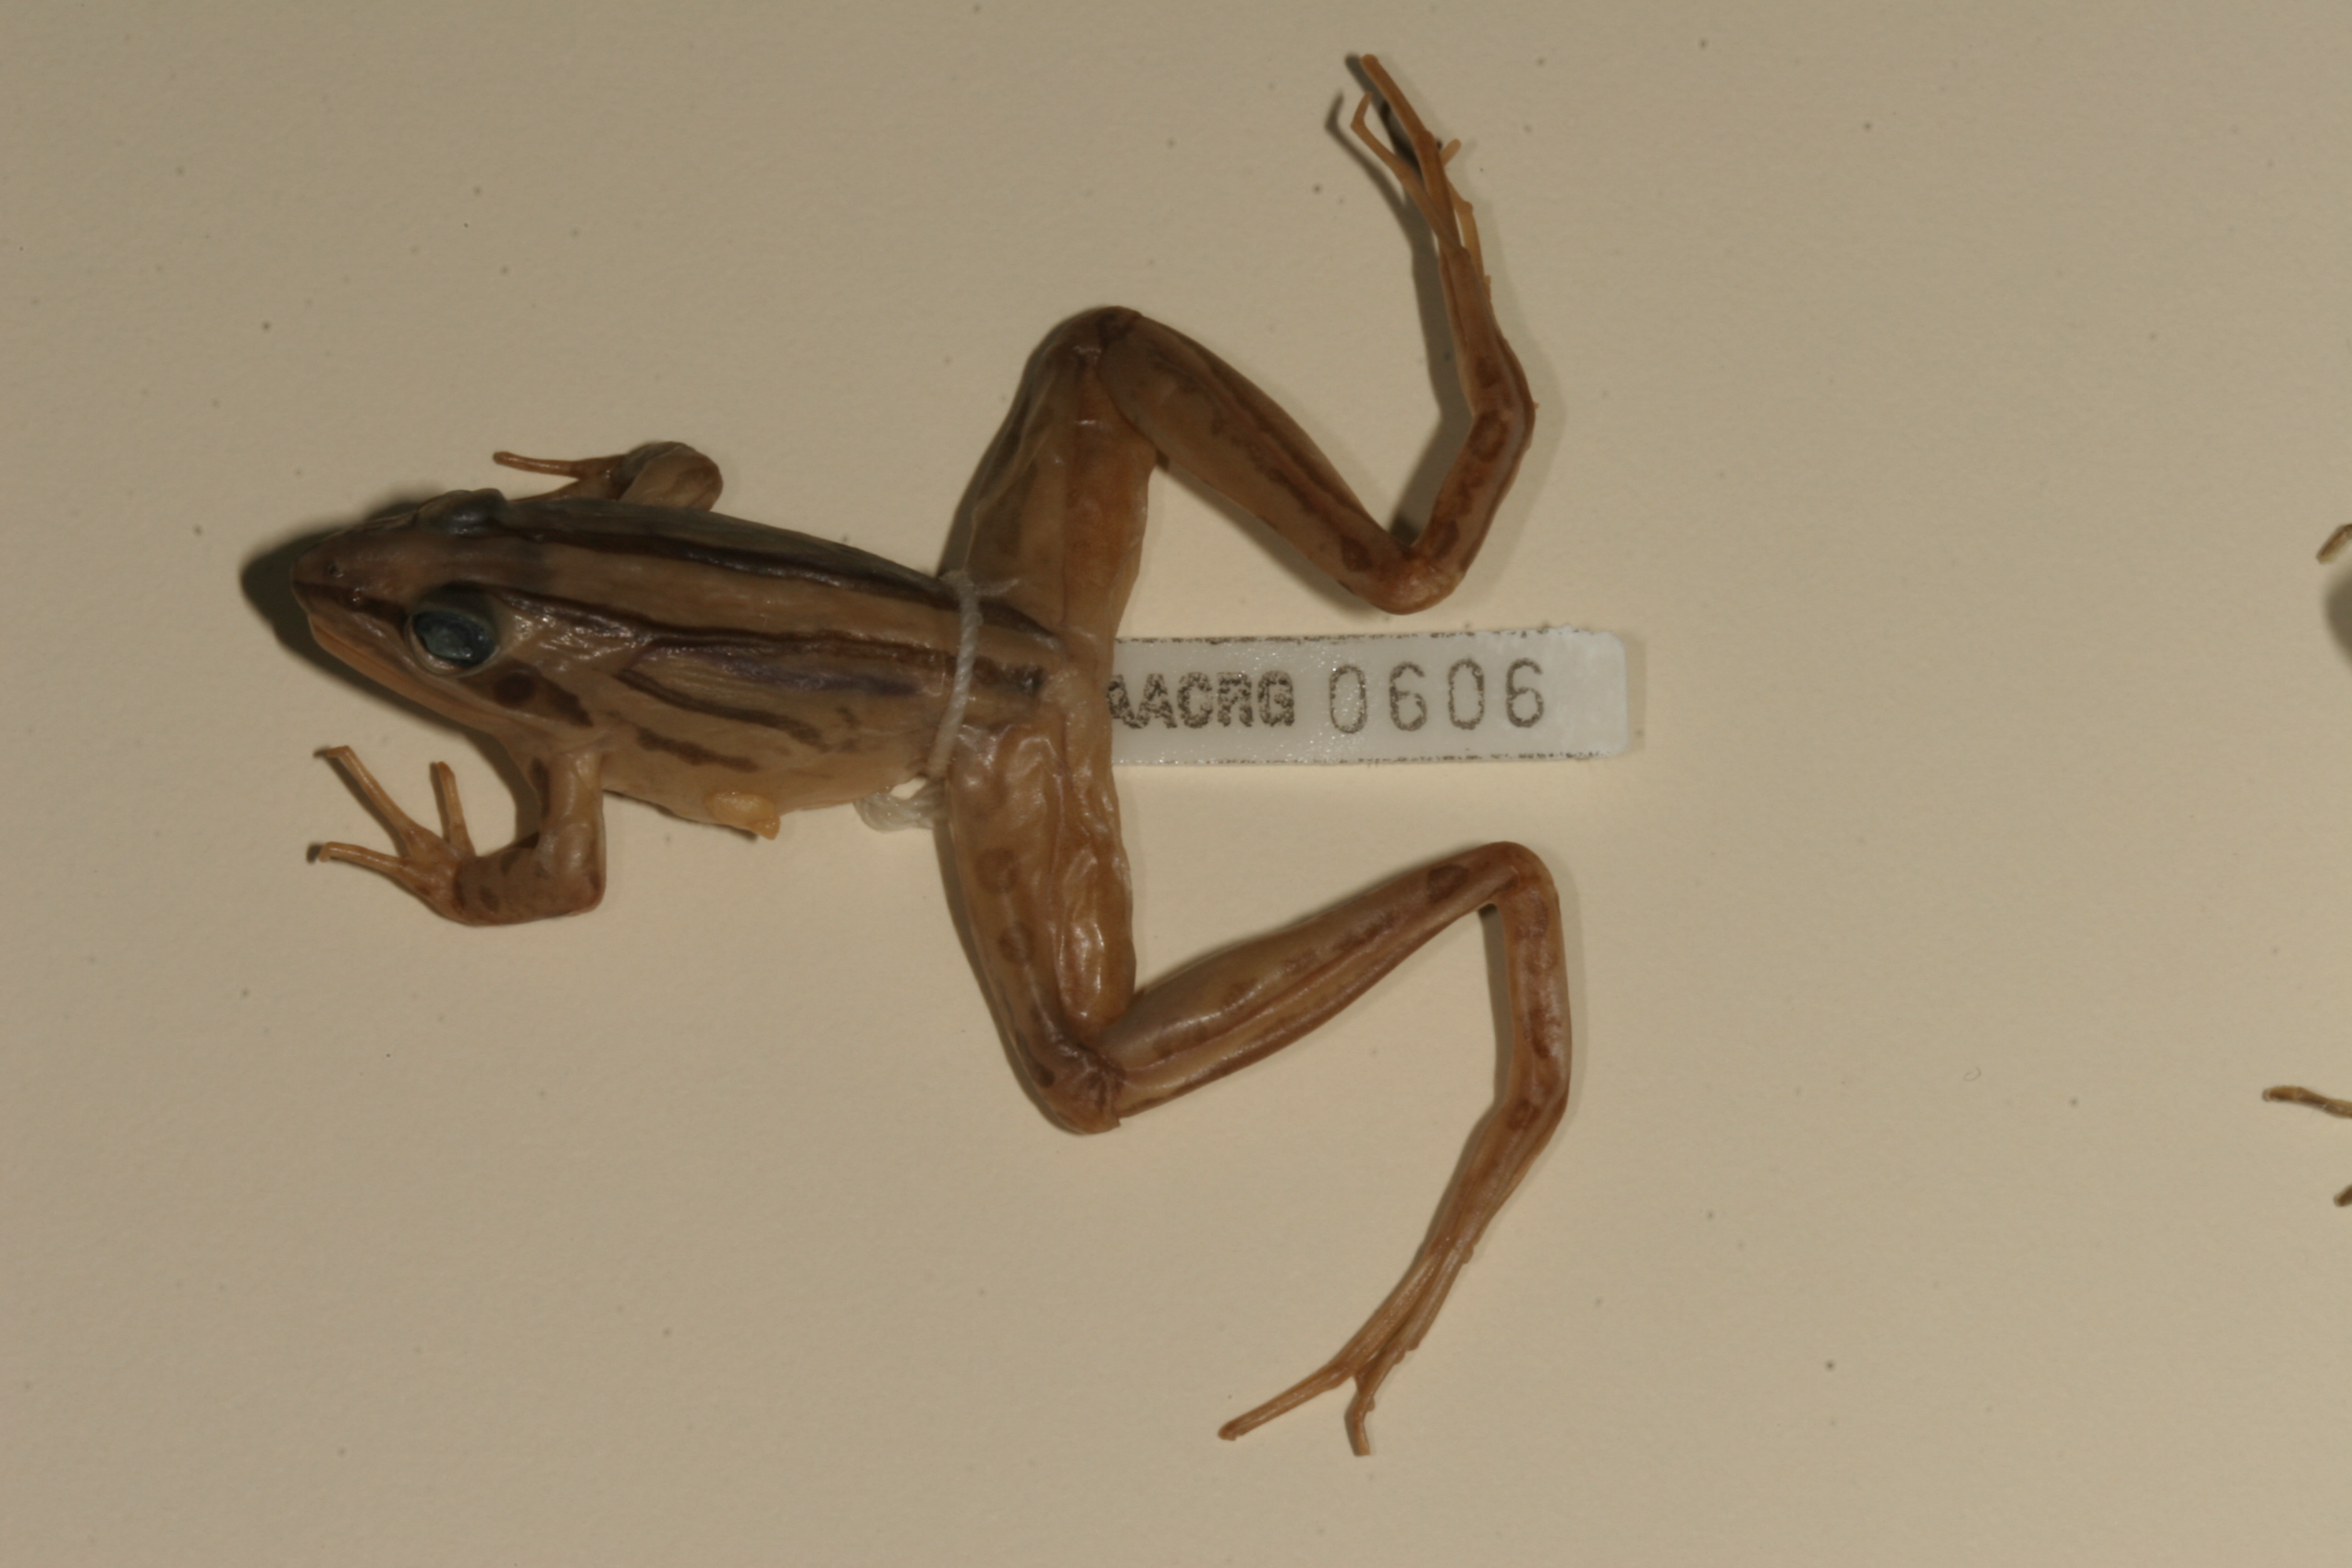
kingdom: Animalia
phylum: Chordata
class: Amphibia
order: Anura
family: Pyxicephalidae
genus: Strongylopus
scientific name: Strongylopus fasciatus
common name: Striped stream frog
